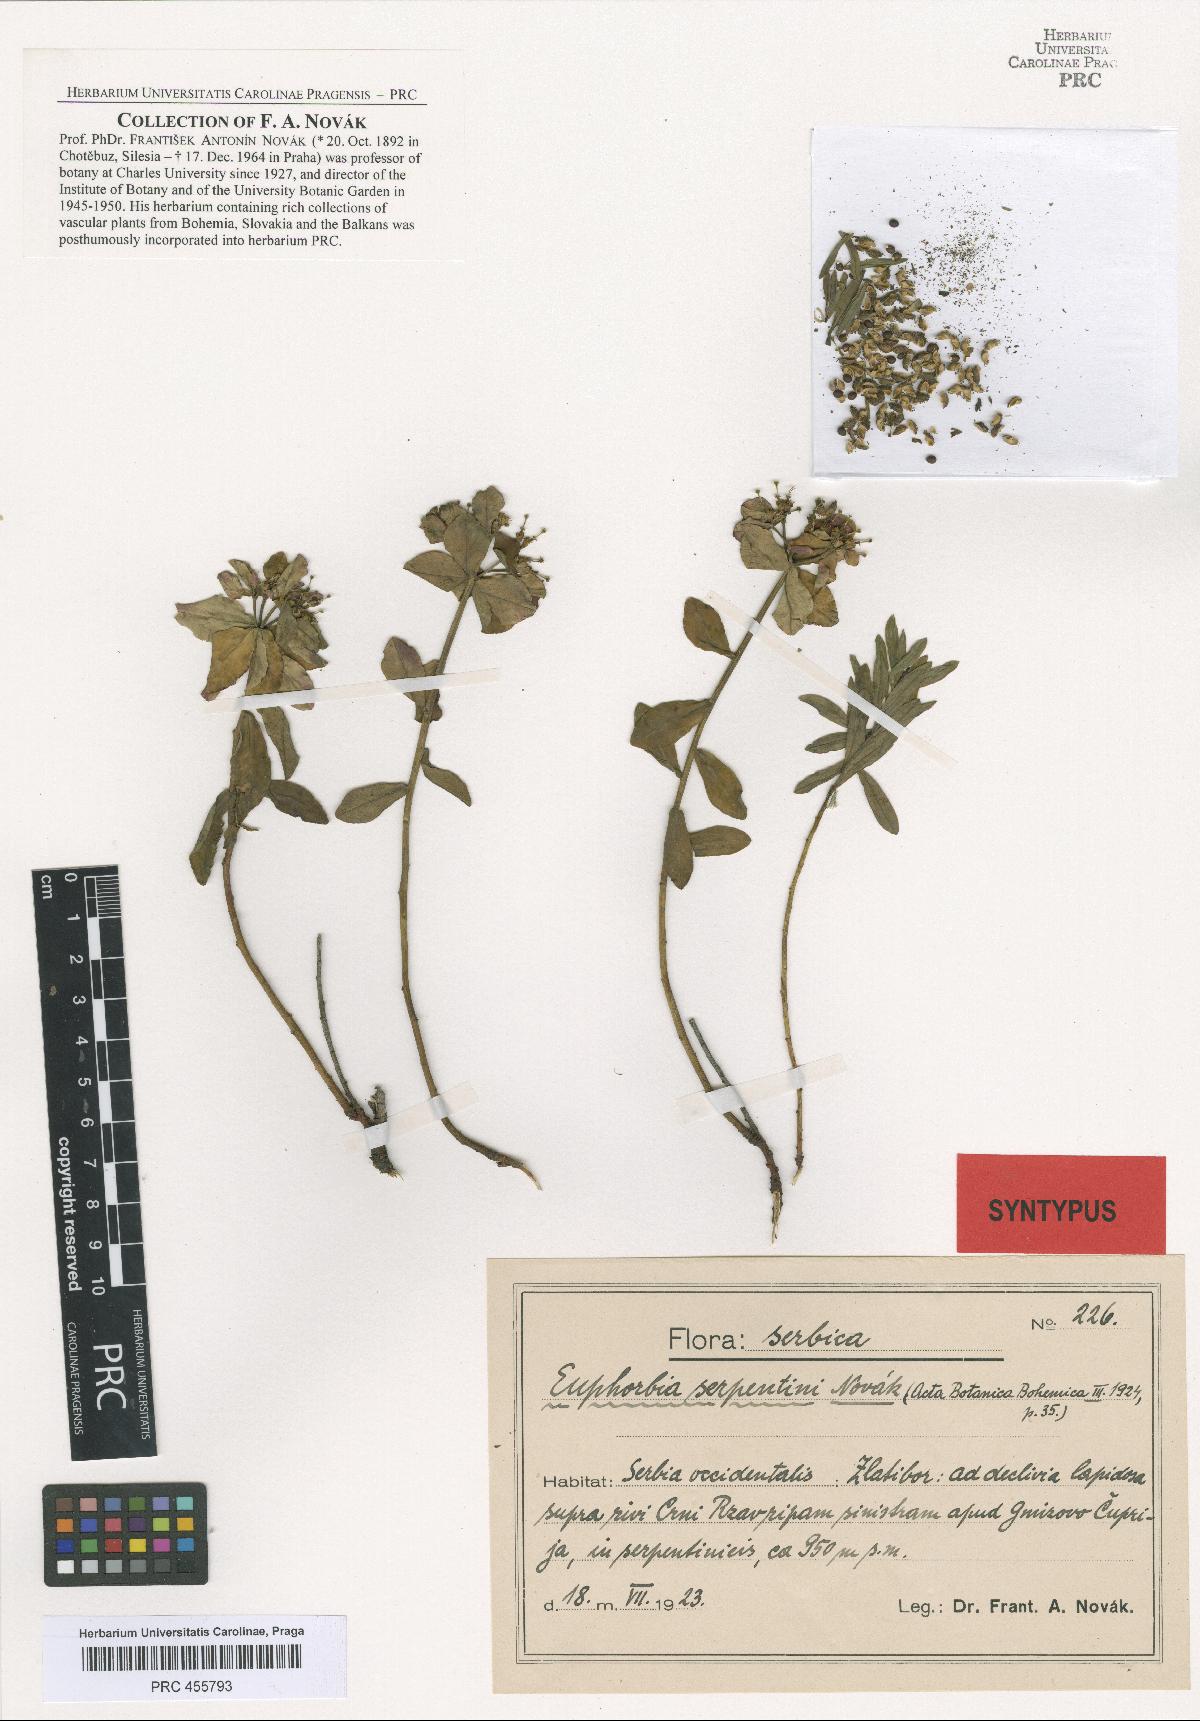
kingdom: Plantae
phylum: Tracheophyta
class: Magnoliopsida
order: Malpighiales
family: Euphorbiaceae
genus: Euphorbia
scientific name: Euphorbia serpentini
